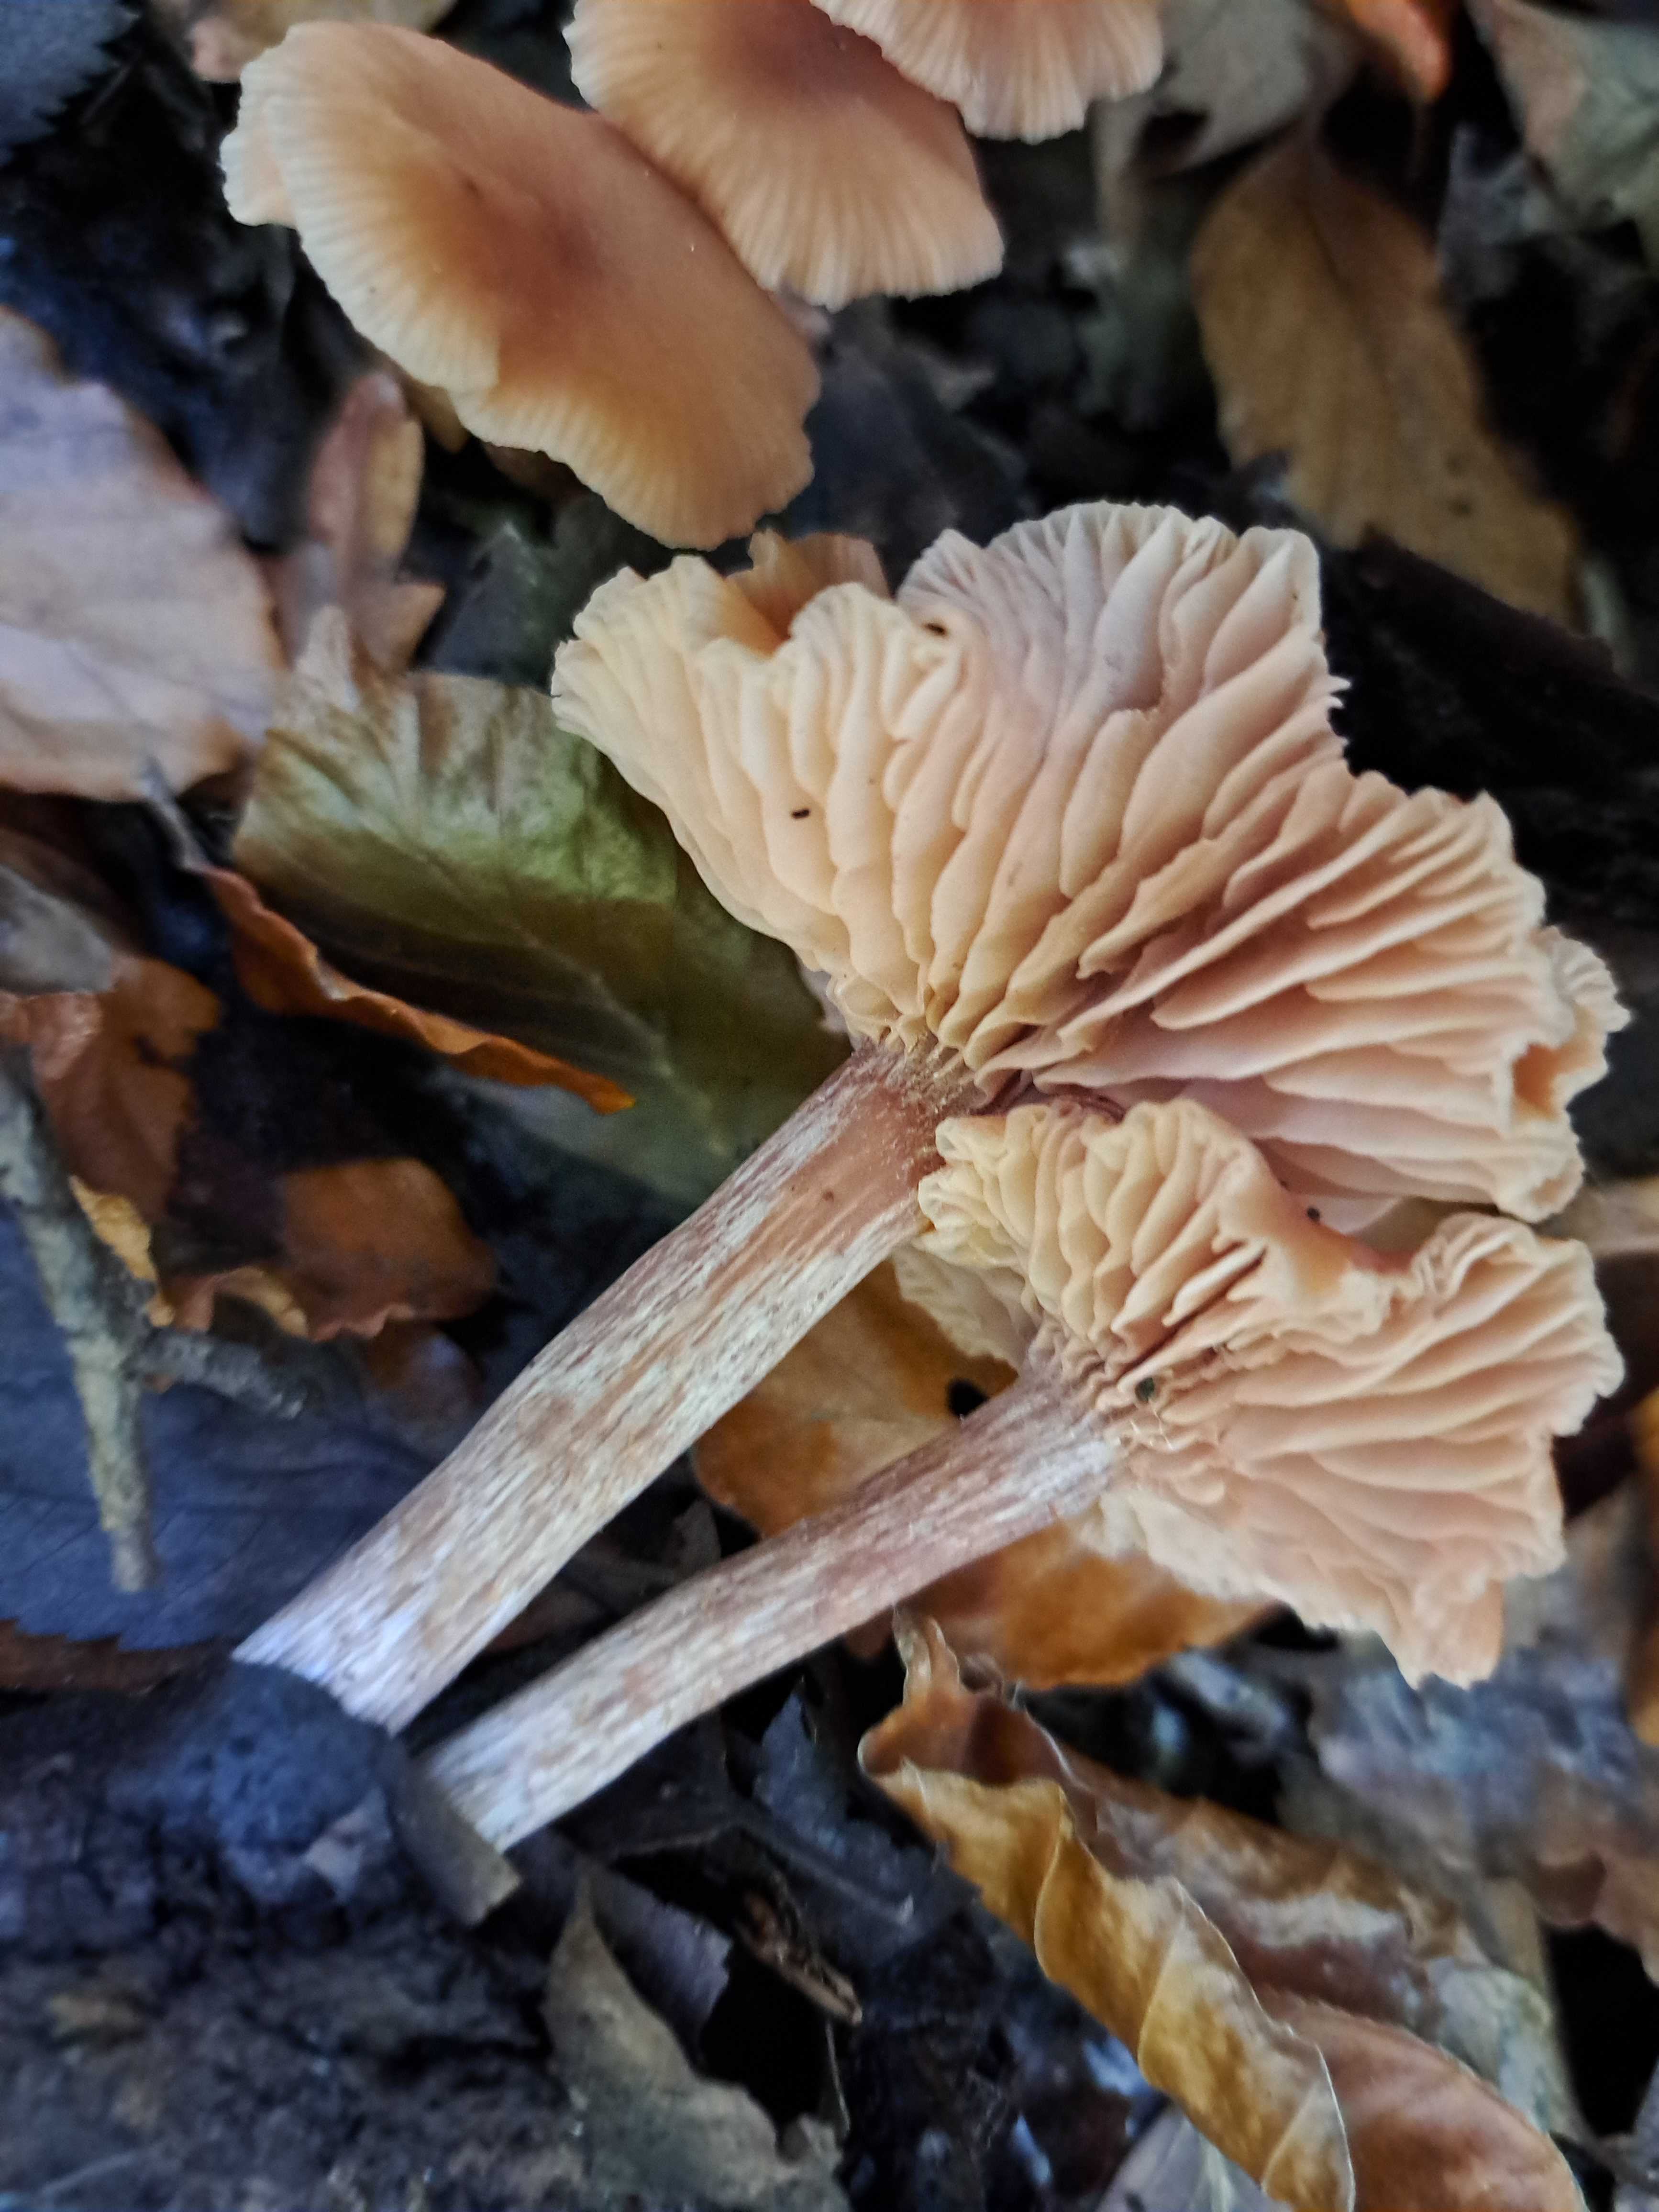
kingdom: Fungi
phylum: Basidiomycota
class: Agaricomycetes
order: Agaricales
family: Hydnangiaceae
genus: Laccaria
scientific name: Laccaria
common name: ametysthat
